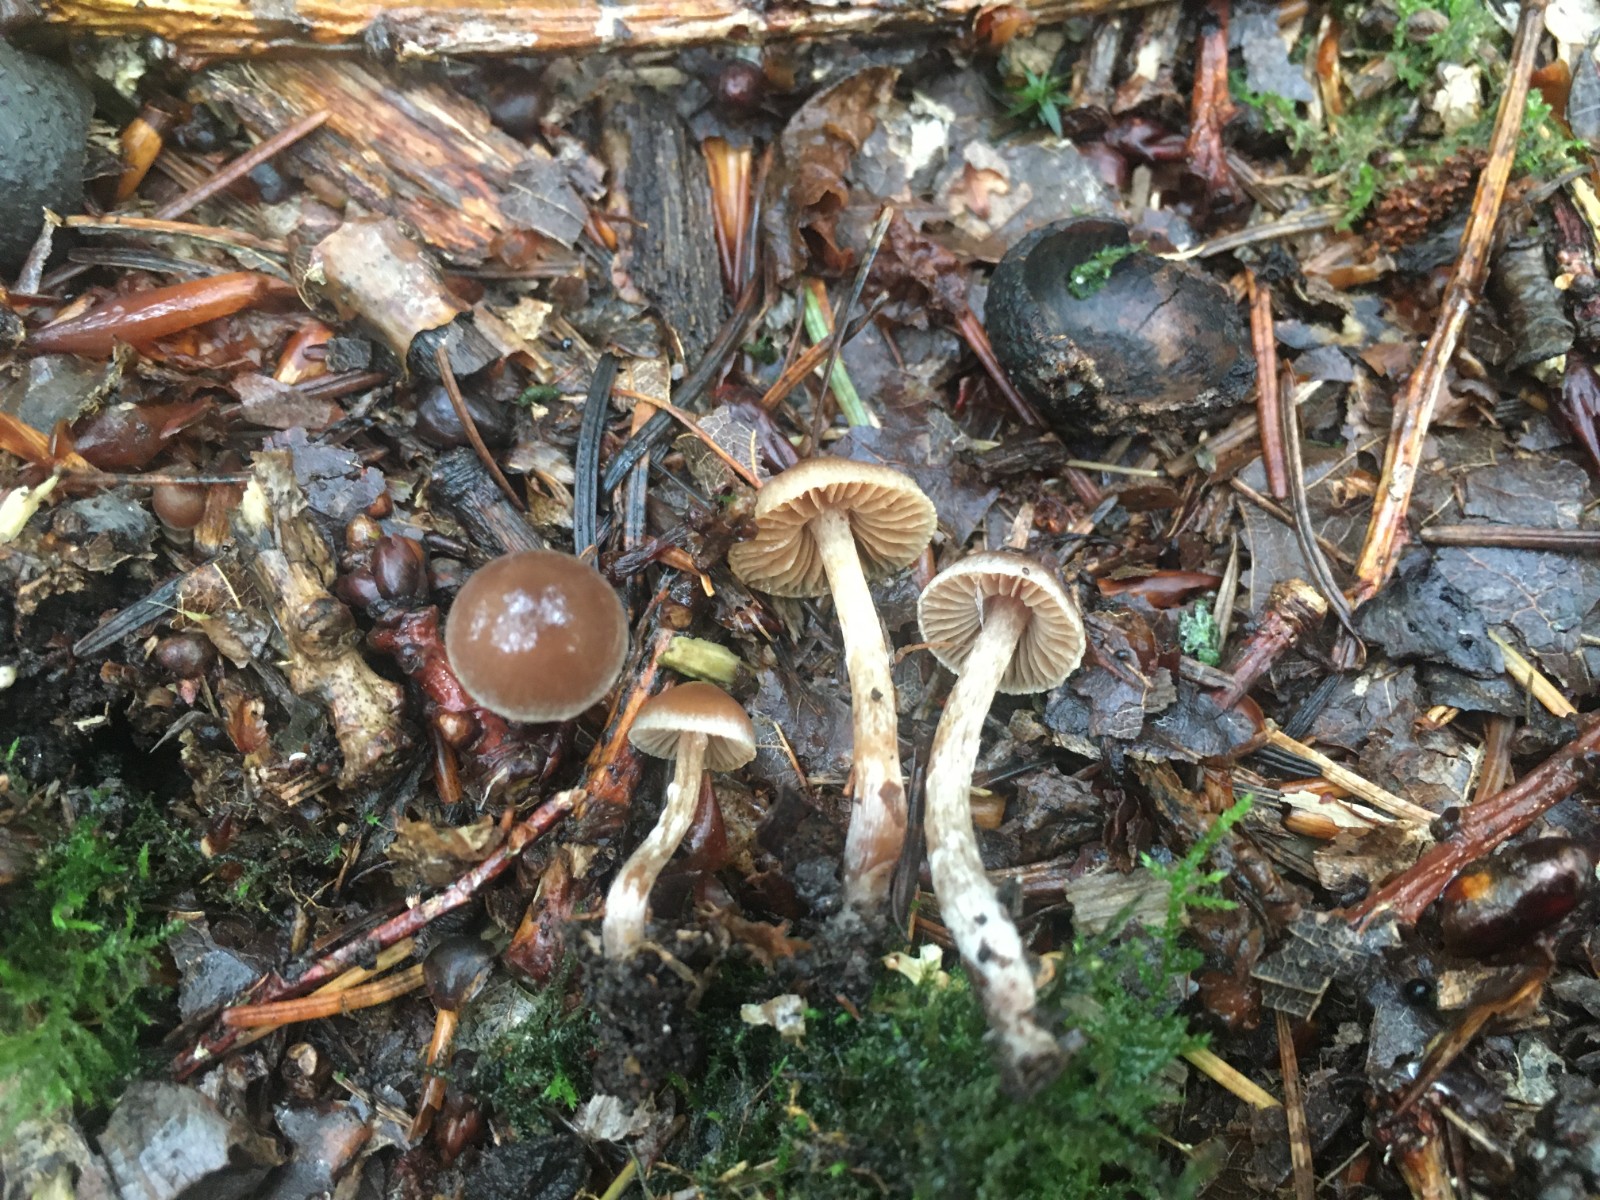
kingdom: Fungi
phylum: Basidiomycota
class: Agaricomycetes
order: Agaricales
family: Cortinariaceae
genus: Cortinarius
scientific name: Cortinarius pilatii
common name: Piláts slørhat
